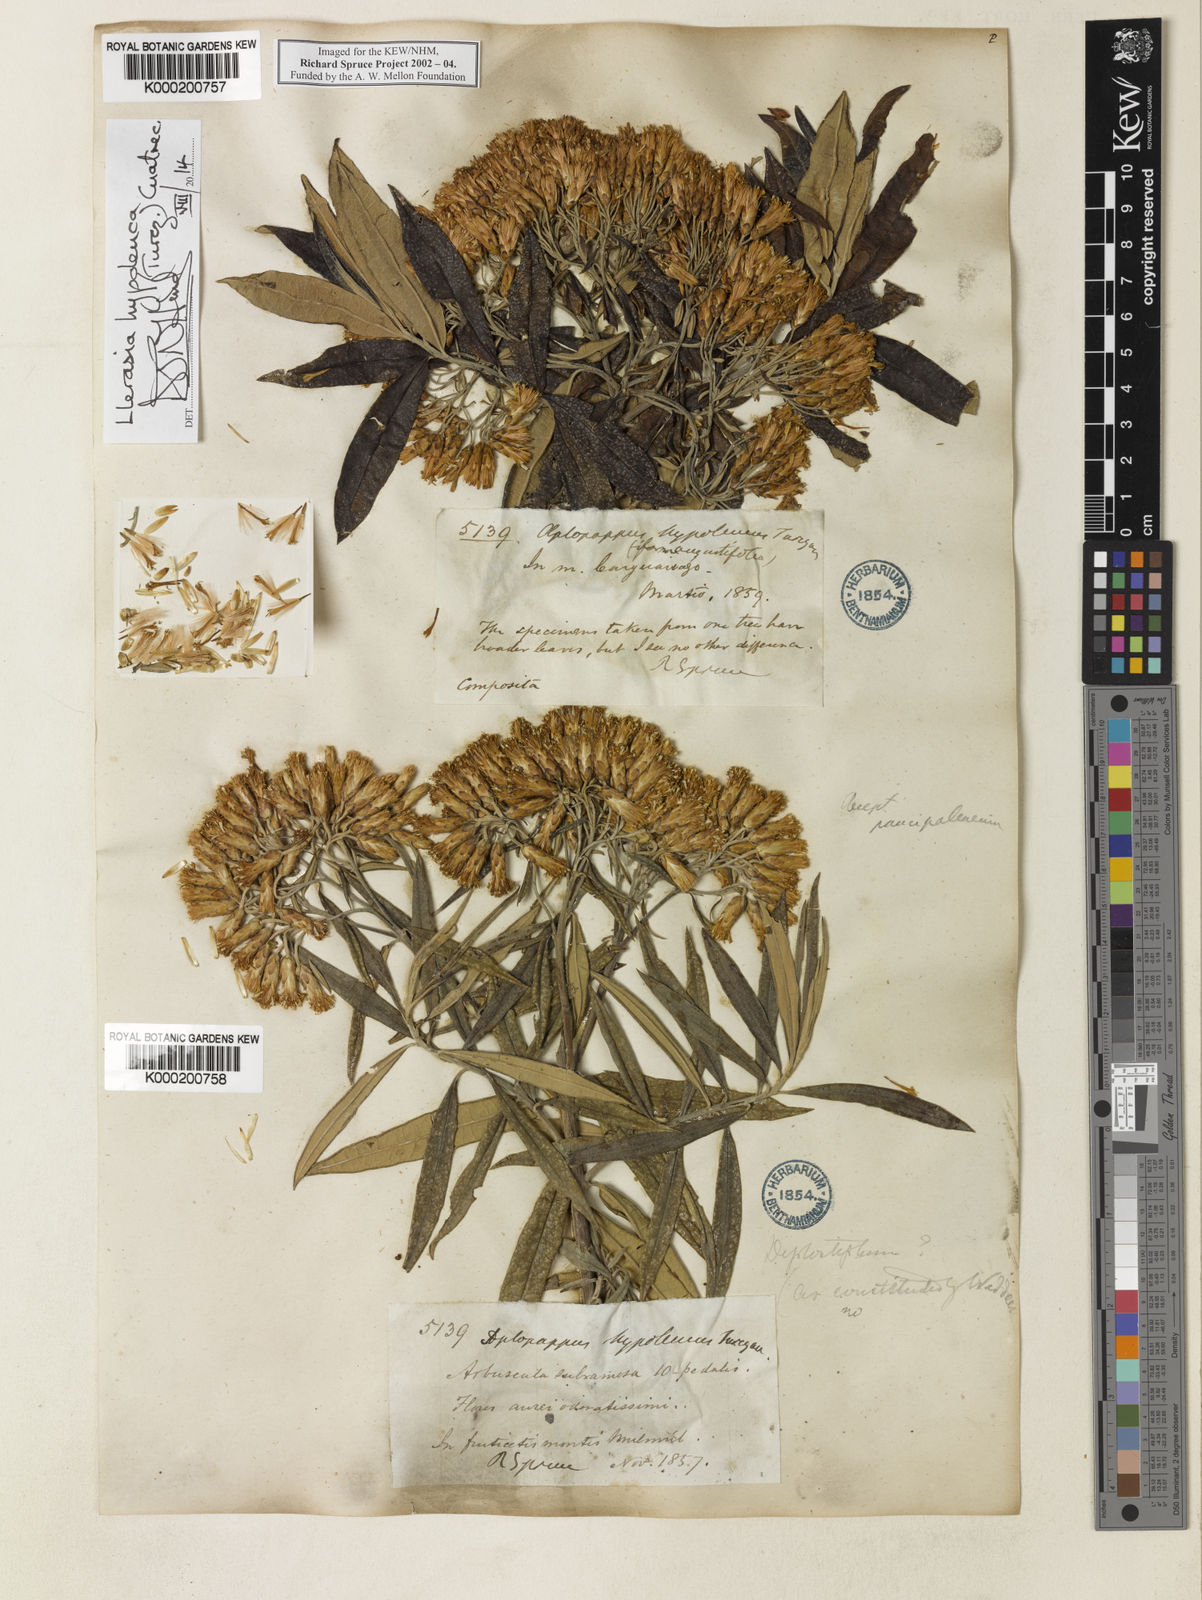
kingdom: Plantae
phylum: Tracheophyta
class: Magnoliopsida
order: Asterales
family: Asteraceae
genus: Llerasia
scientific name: Llerasia hypoleuca
